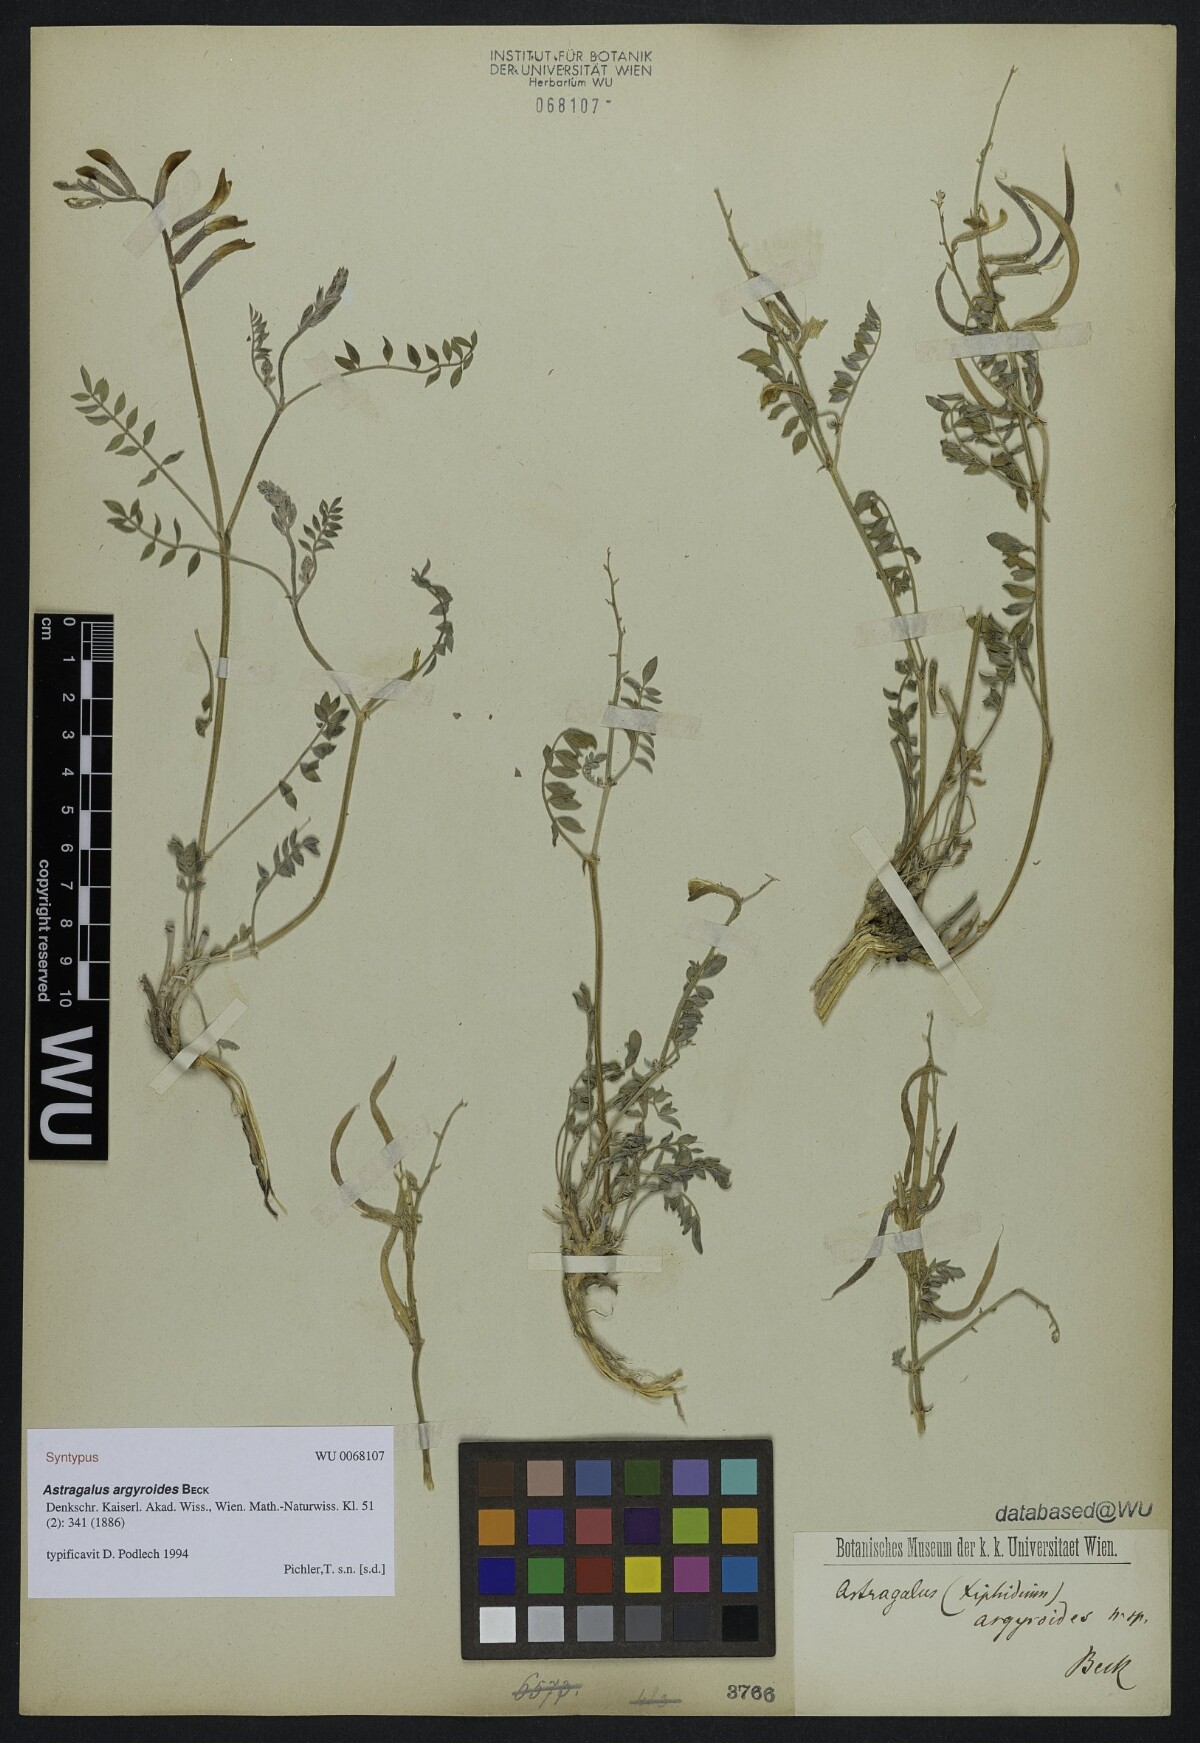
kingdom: Plantae
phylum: Tracheophyta
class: Magnoliopsida
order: Fabales
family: Fabaceae
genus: Astragalus
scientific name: Astragalus argyroides
